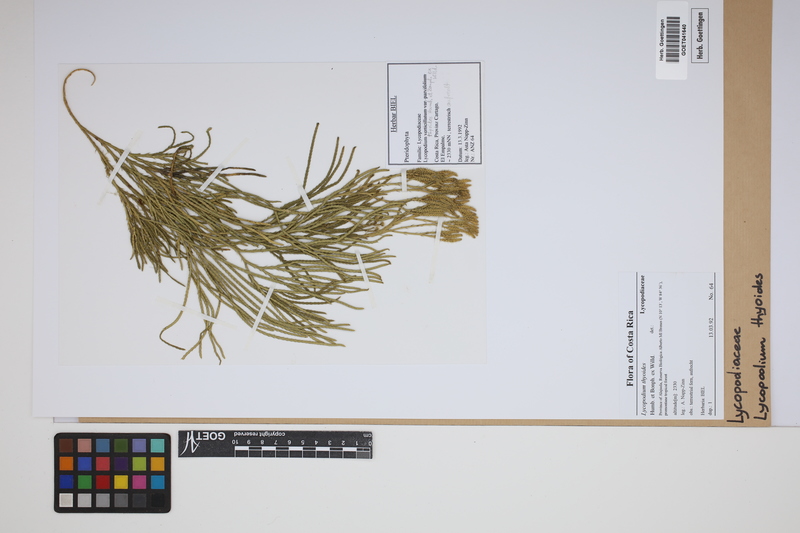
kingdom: Plantae
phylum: Tracheophyta
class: Lycopodiopsida
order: Lycopodiales
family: Lycopodiaceae
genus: Diphasiastrum
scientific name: Diphasiastrum thyoides
